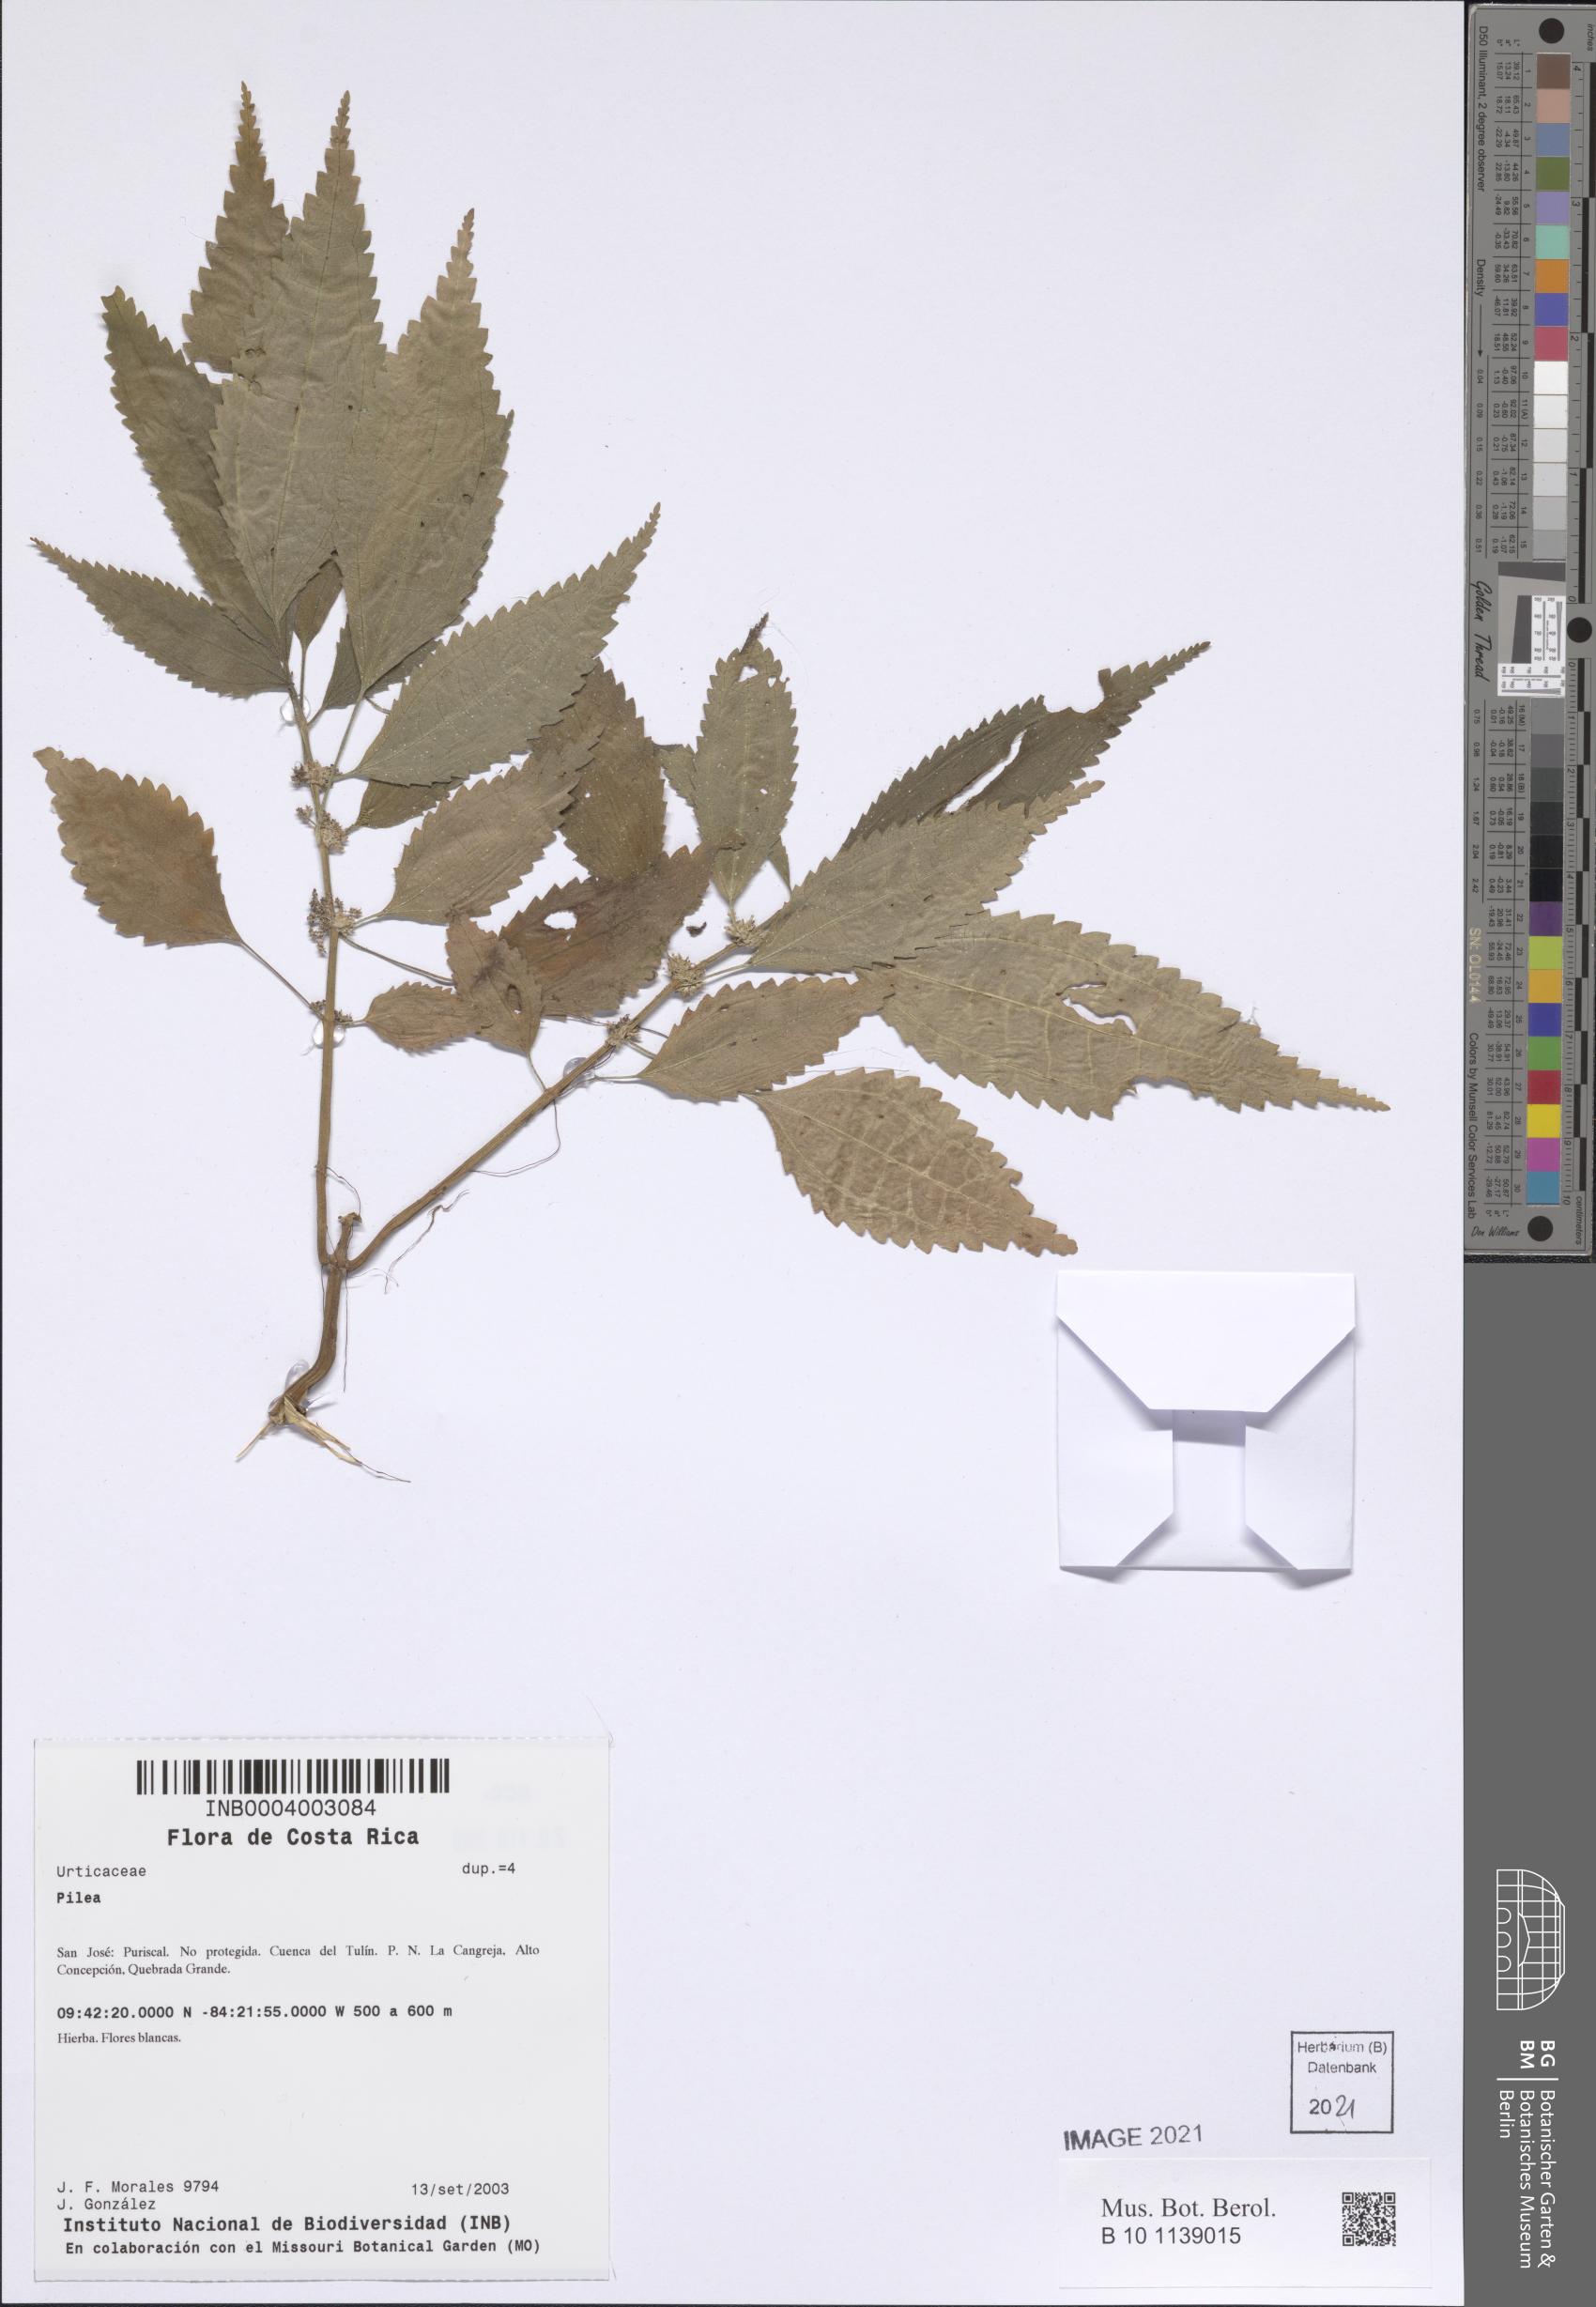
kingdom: Plantae
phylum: Tracheophyta
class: Magnoliopsida
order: Rosales
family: Urticaceae
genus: Pilea
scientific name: Pilea
